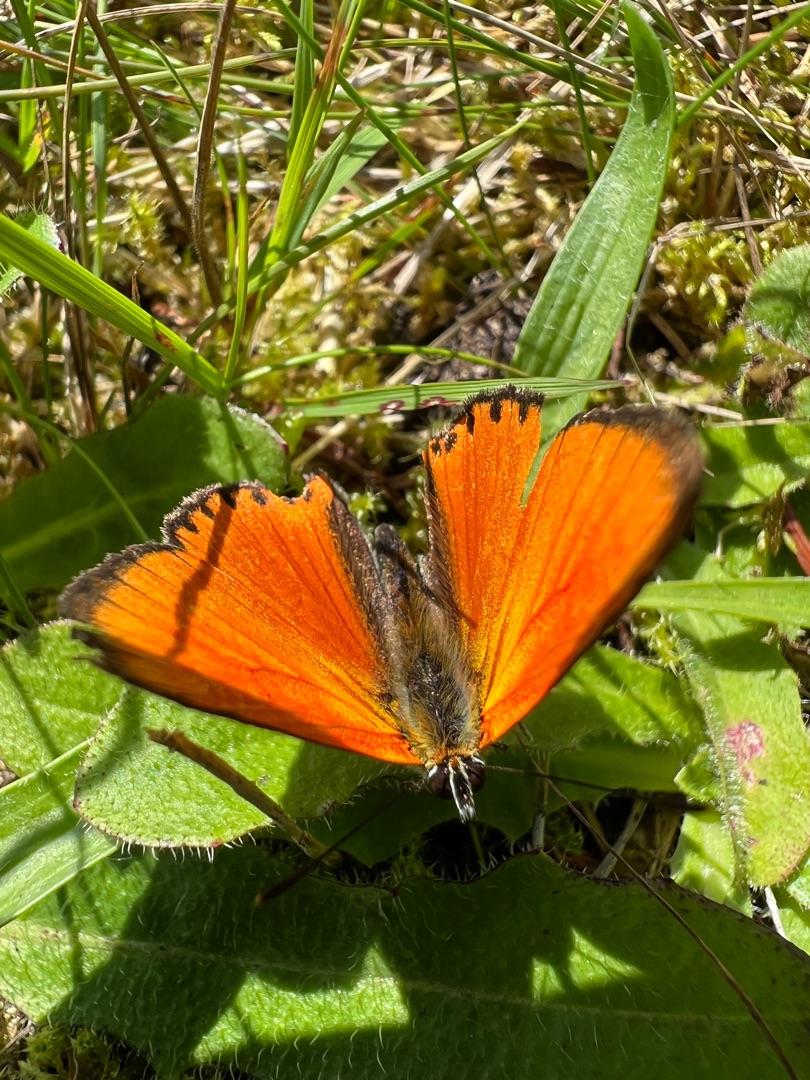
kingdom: Animalia
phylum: Arthropoda
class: Insecta
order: Lepidoptera
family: Lycaenidae
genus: Lycaena
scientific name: Lycaena virgaureae
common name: Dukatsommerfugl
